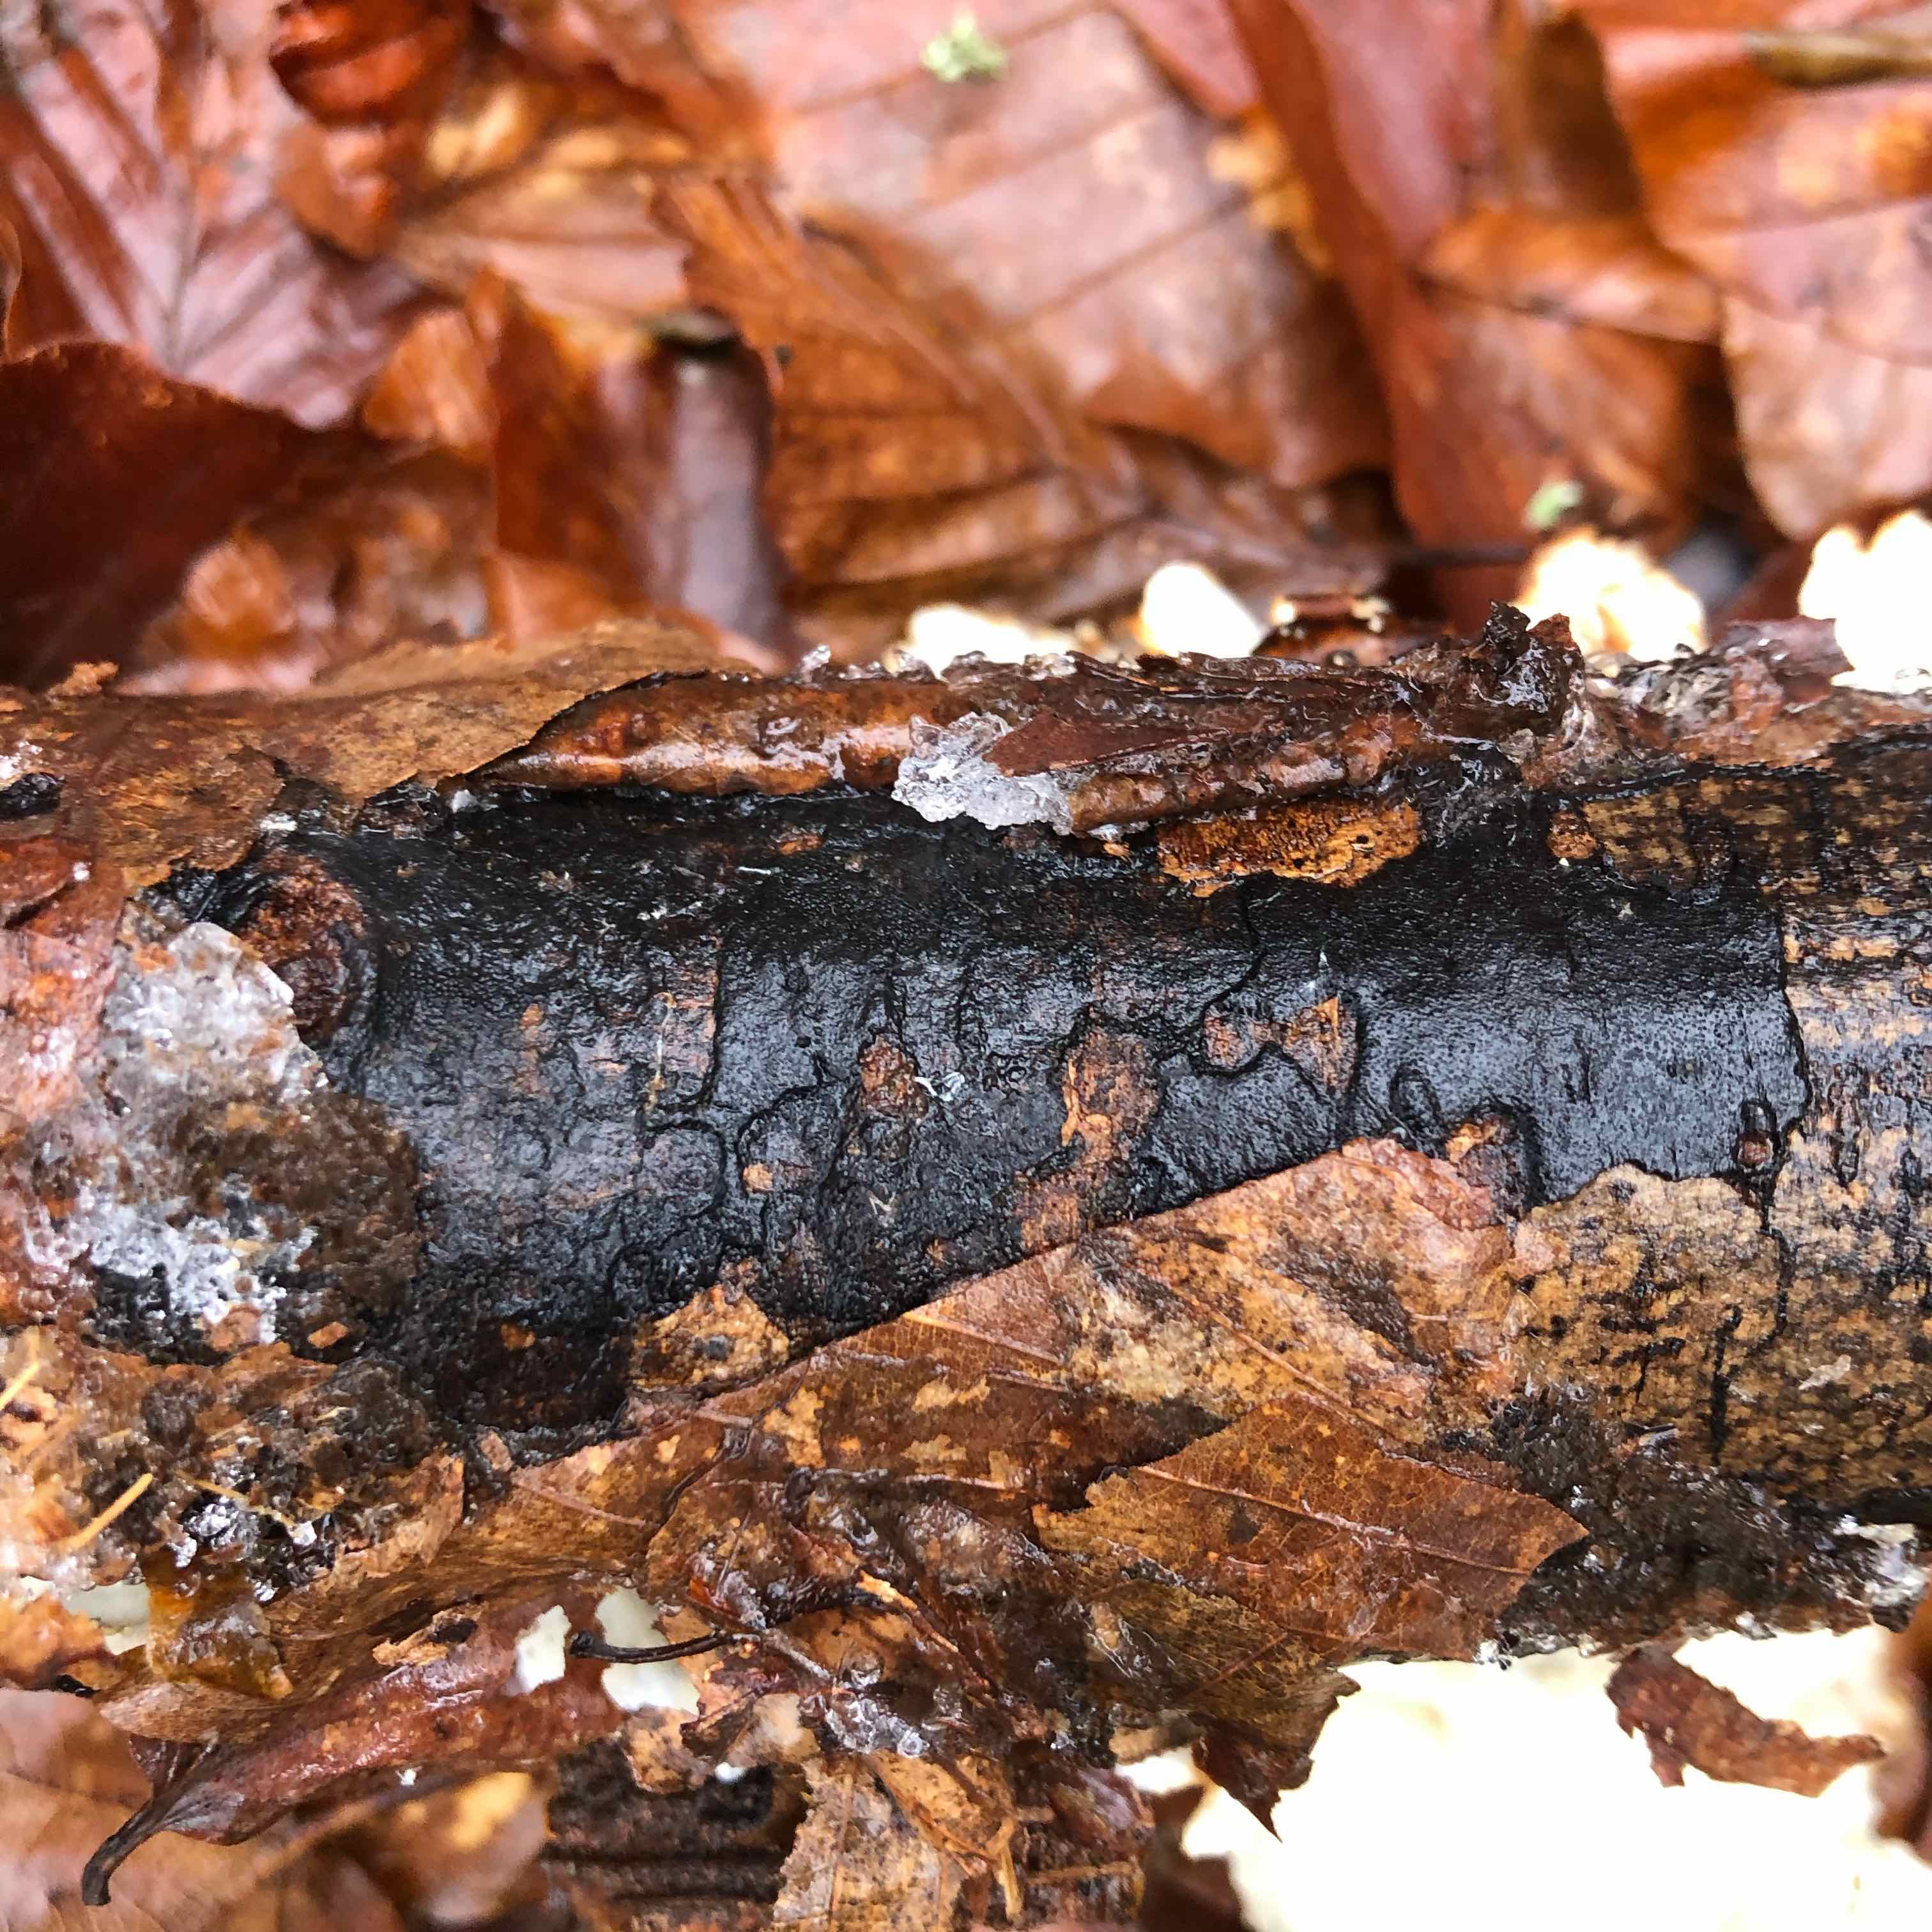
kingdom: Fungi
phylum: Ascomycota
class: Sordariomycetes
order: Xylariales
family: Diatrypaceae
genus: Diatrype
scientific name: Diatrype decorticata
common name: barksprænger-kulskorpe
